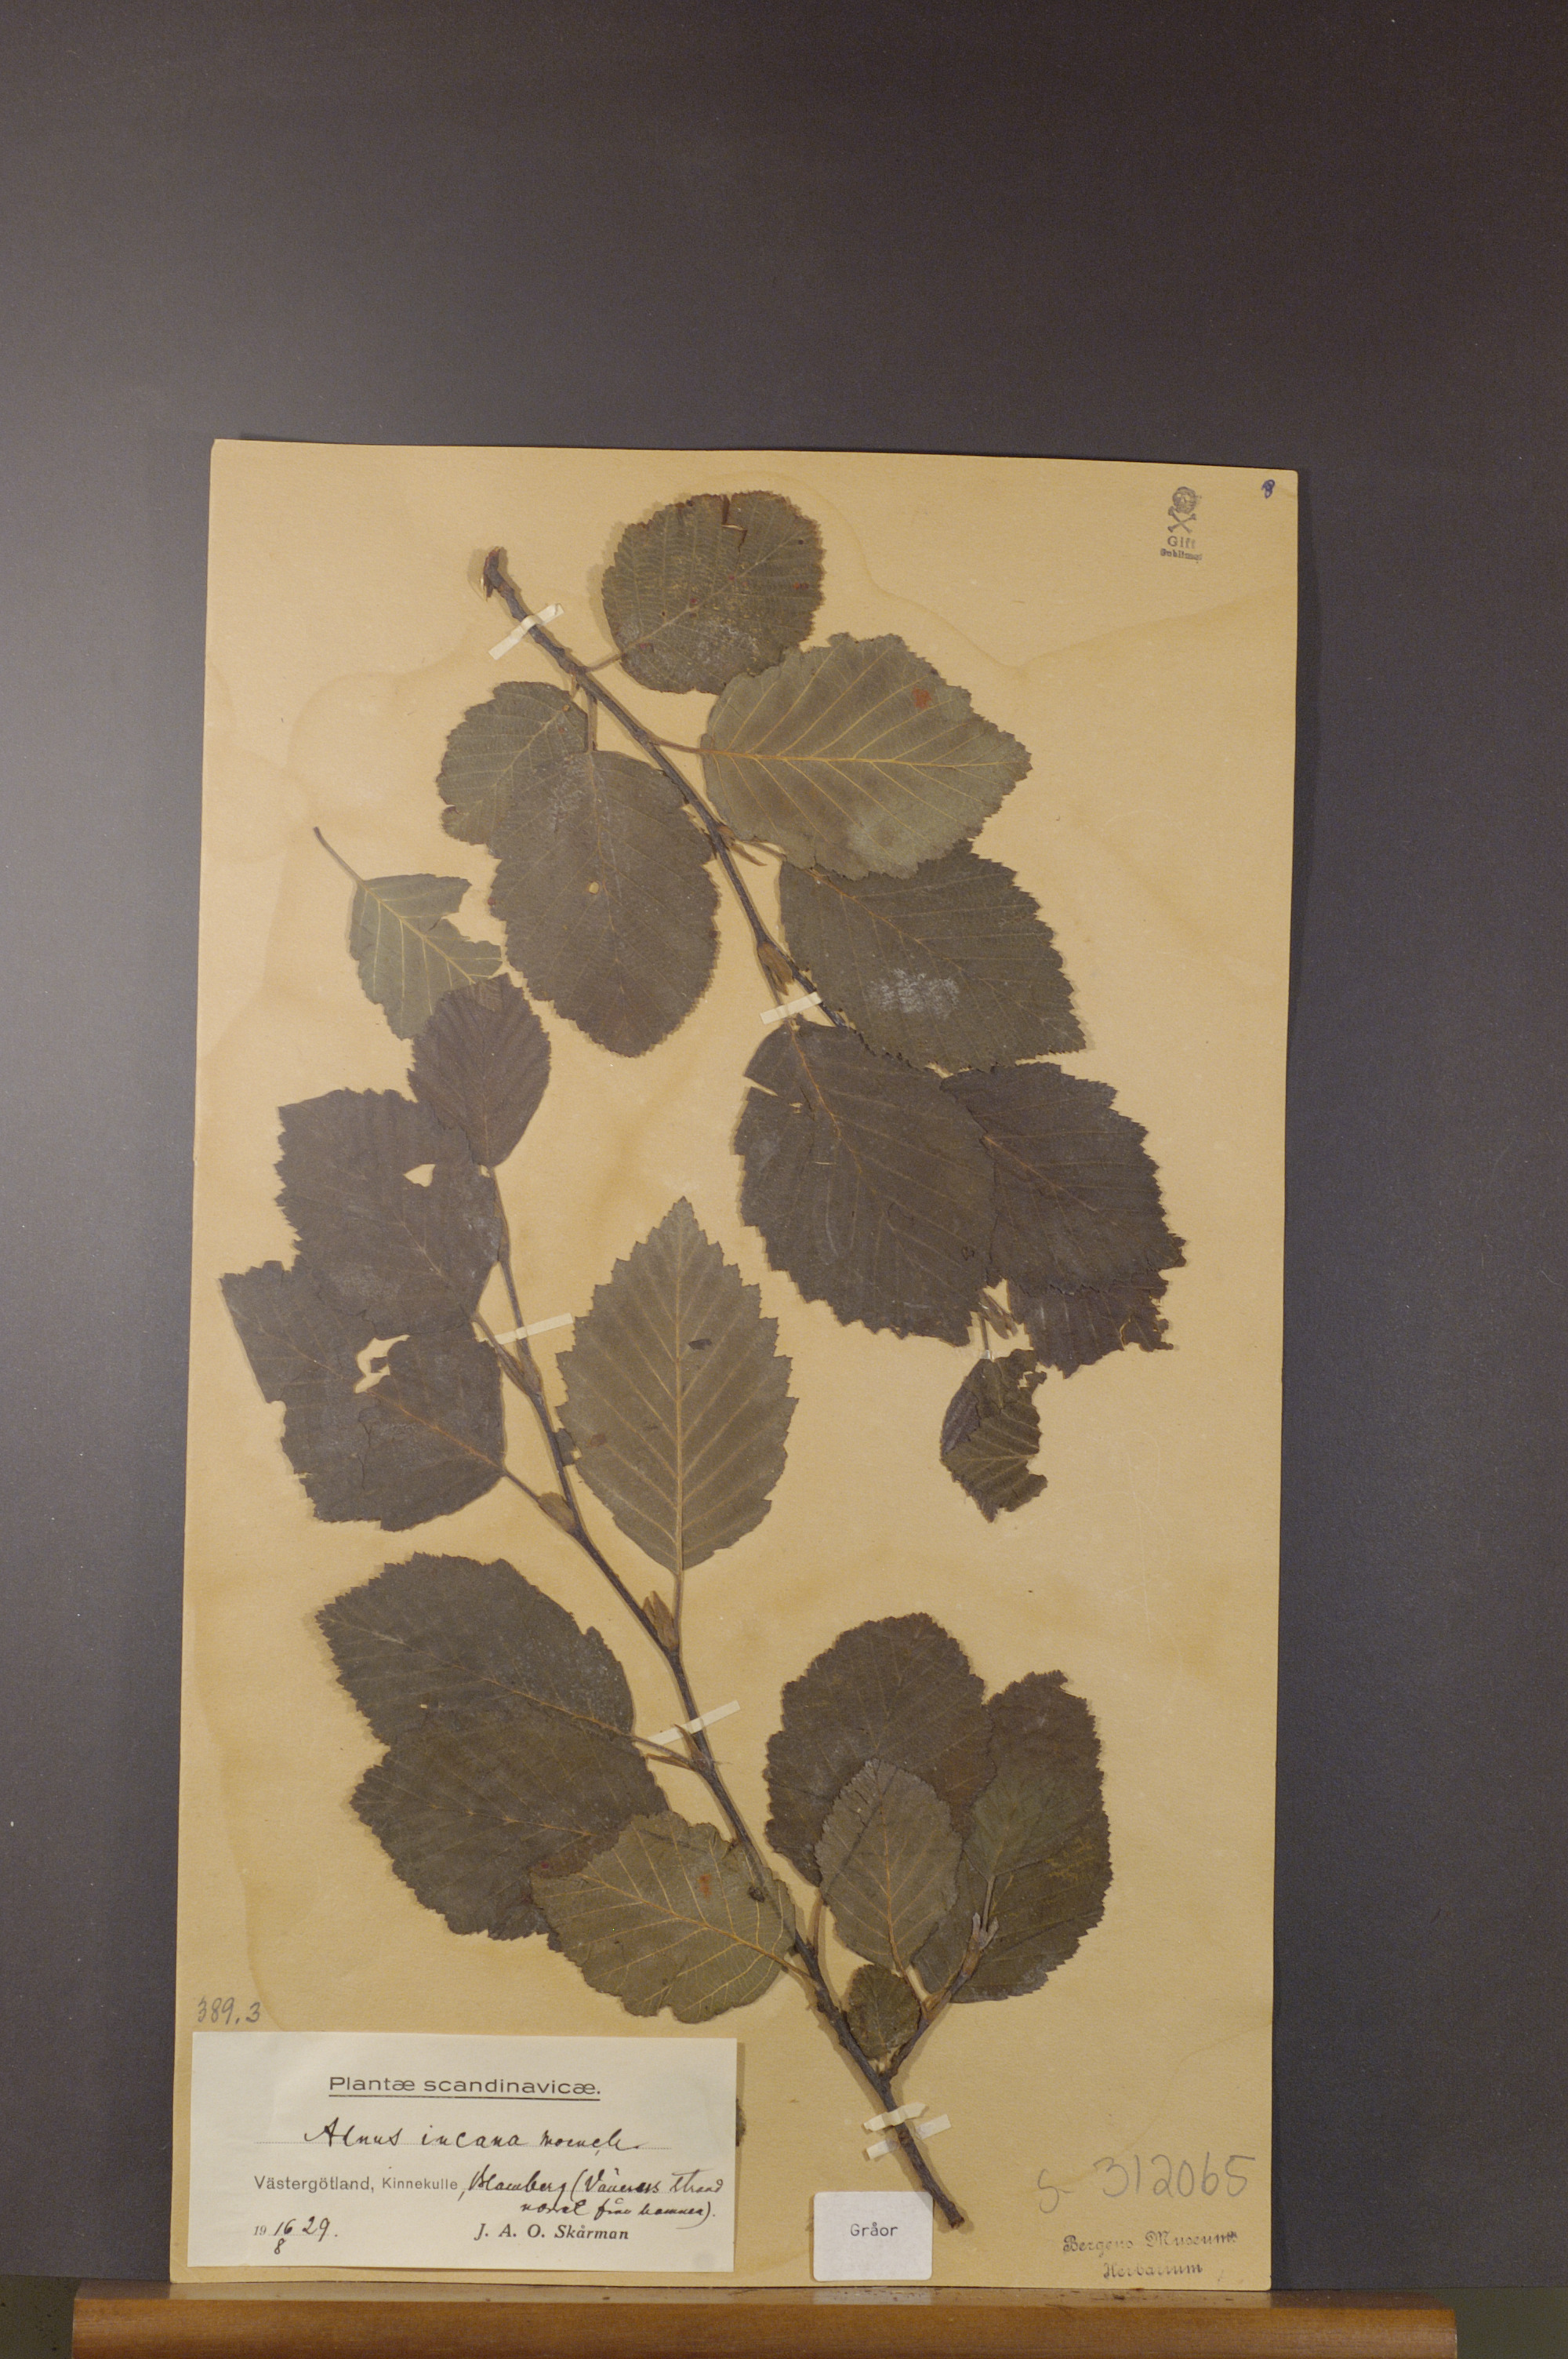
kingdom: Plantae
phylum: Tracheophyta
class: Magnoliopsida
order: Fagales
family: Betulaceae
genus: Alnus
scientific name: Alnus incana
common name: Grey alder
